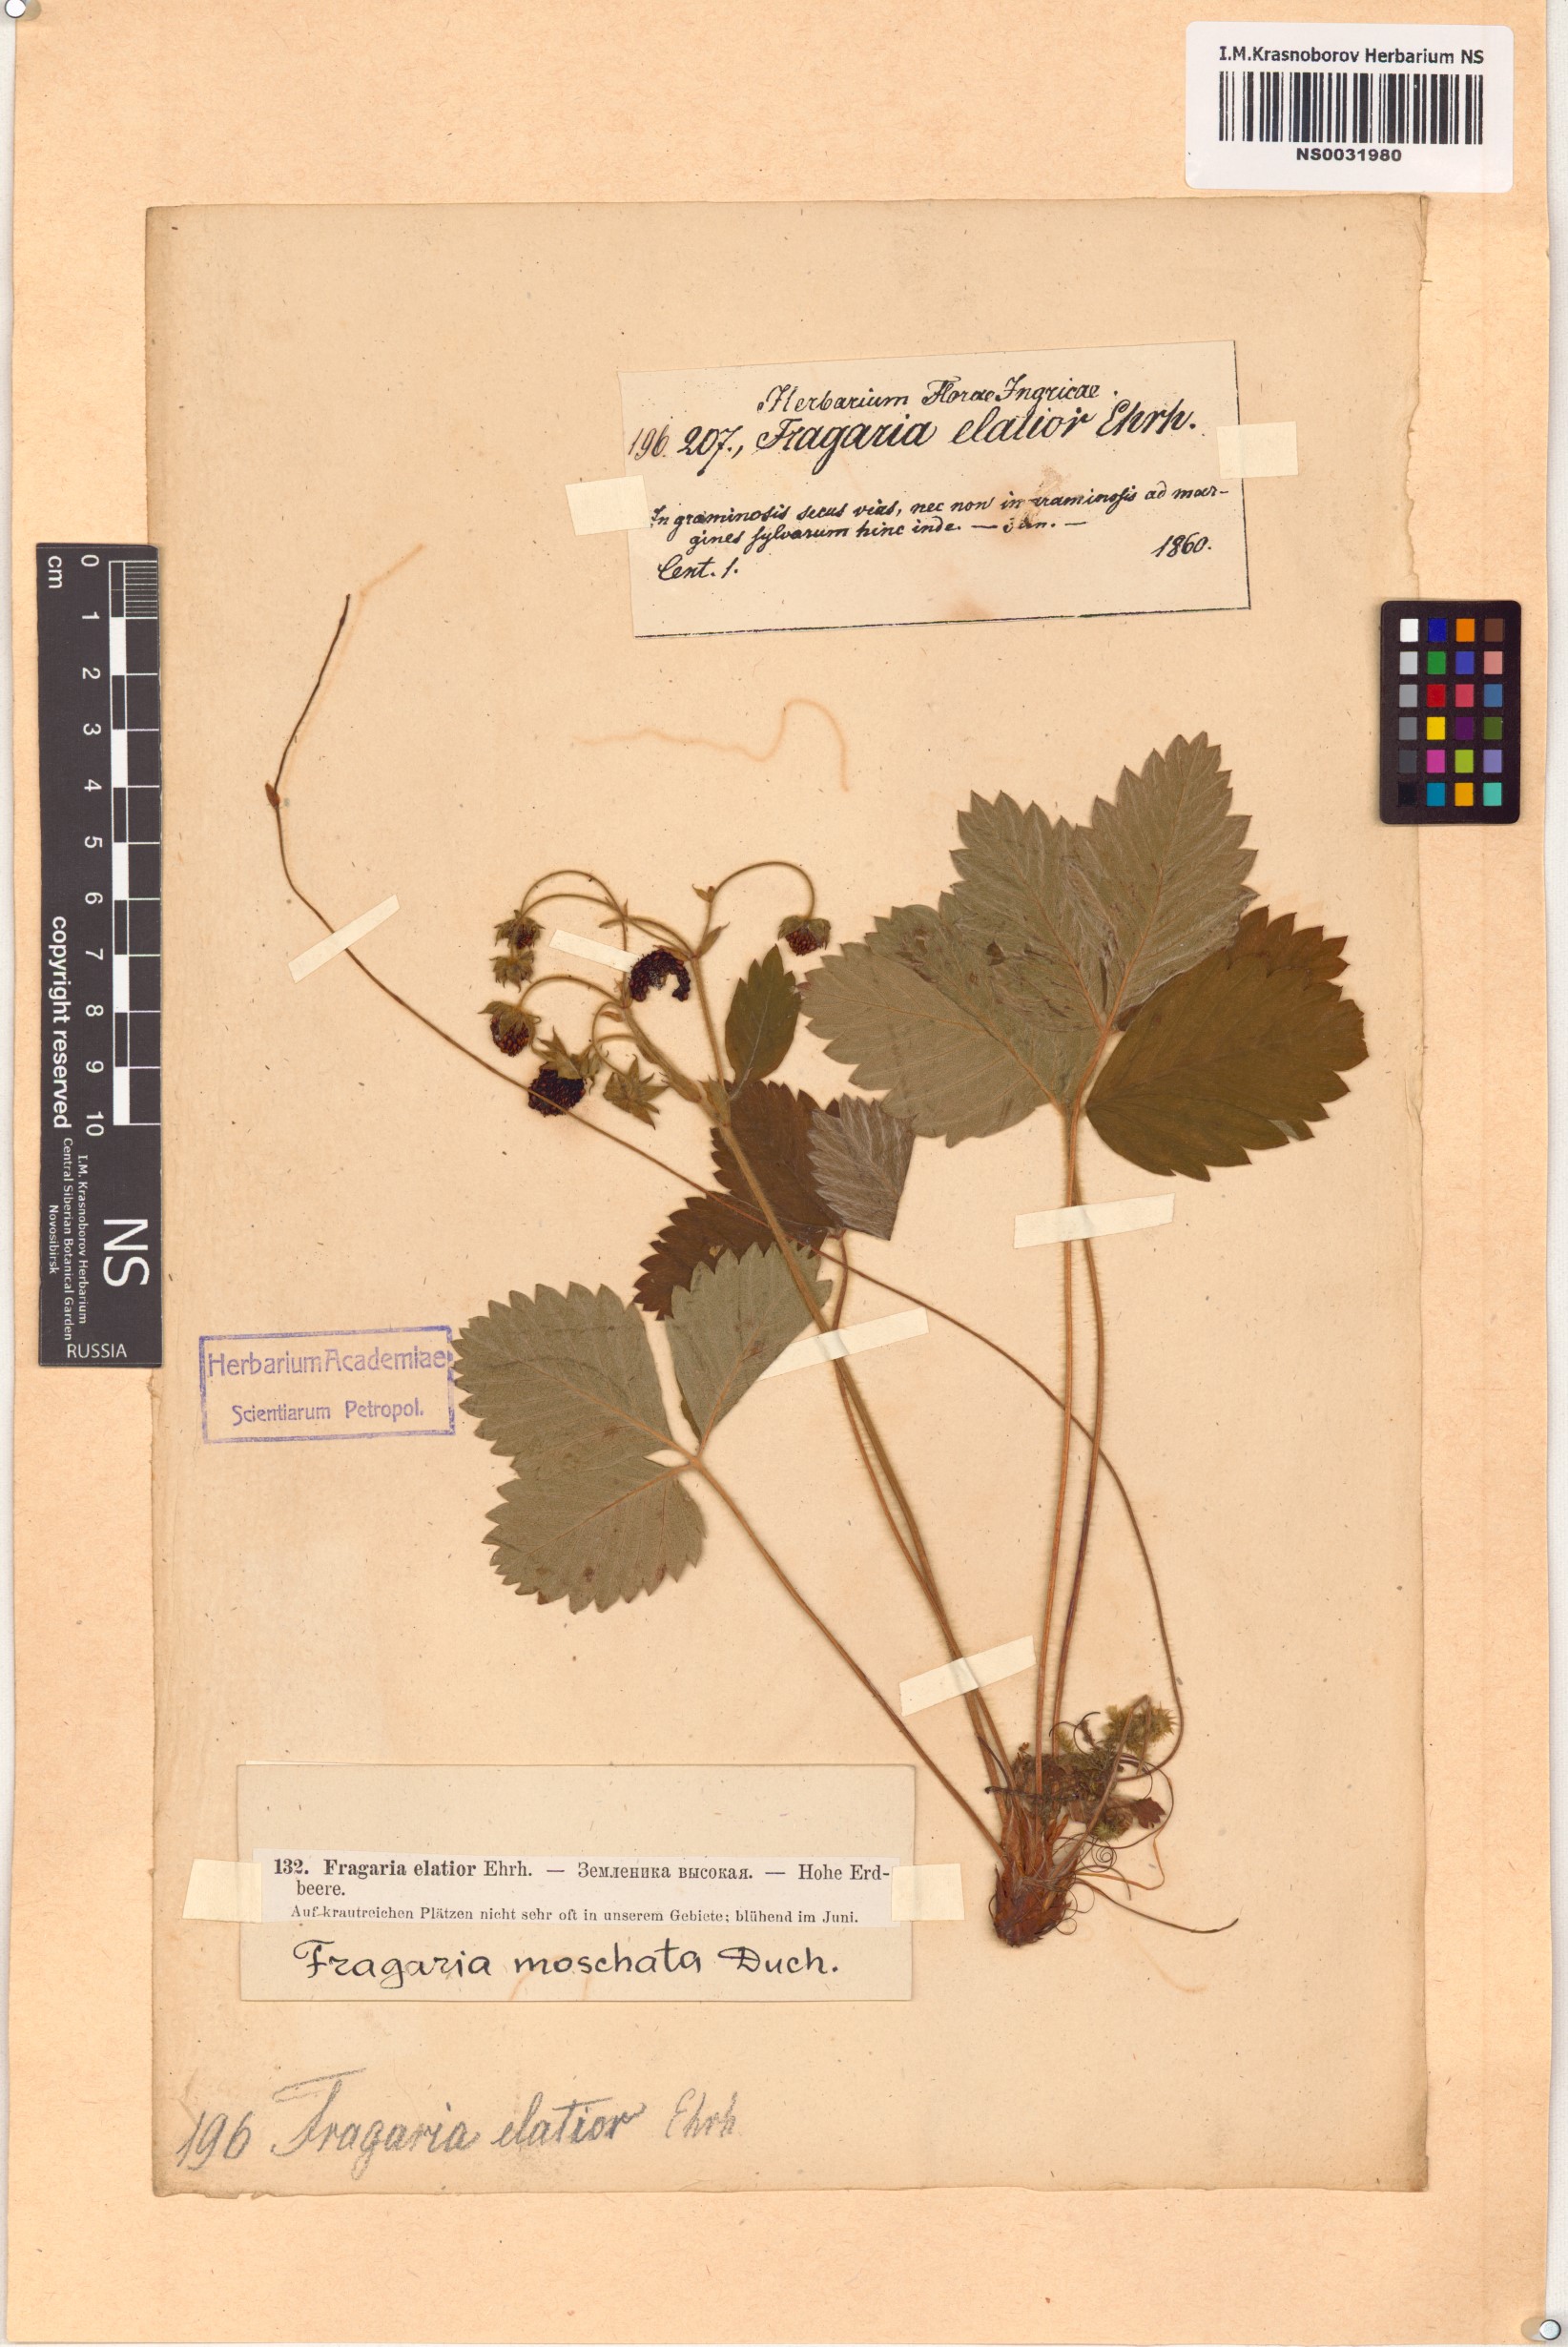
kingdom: Plantae
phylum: Tracheophyta
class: Magnoliopsida
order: Rosales
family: Rosaceae
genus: Fragaria
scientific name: Fragaria moschata
